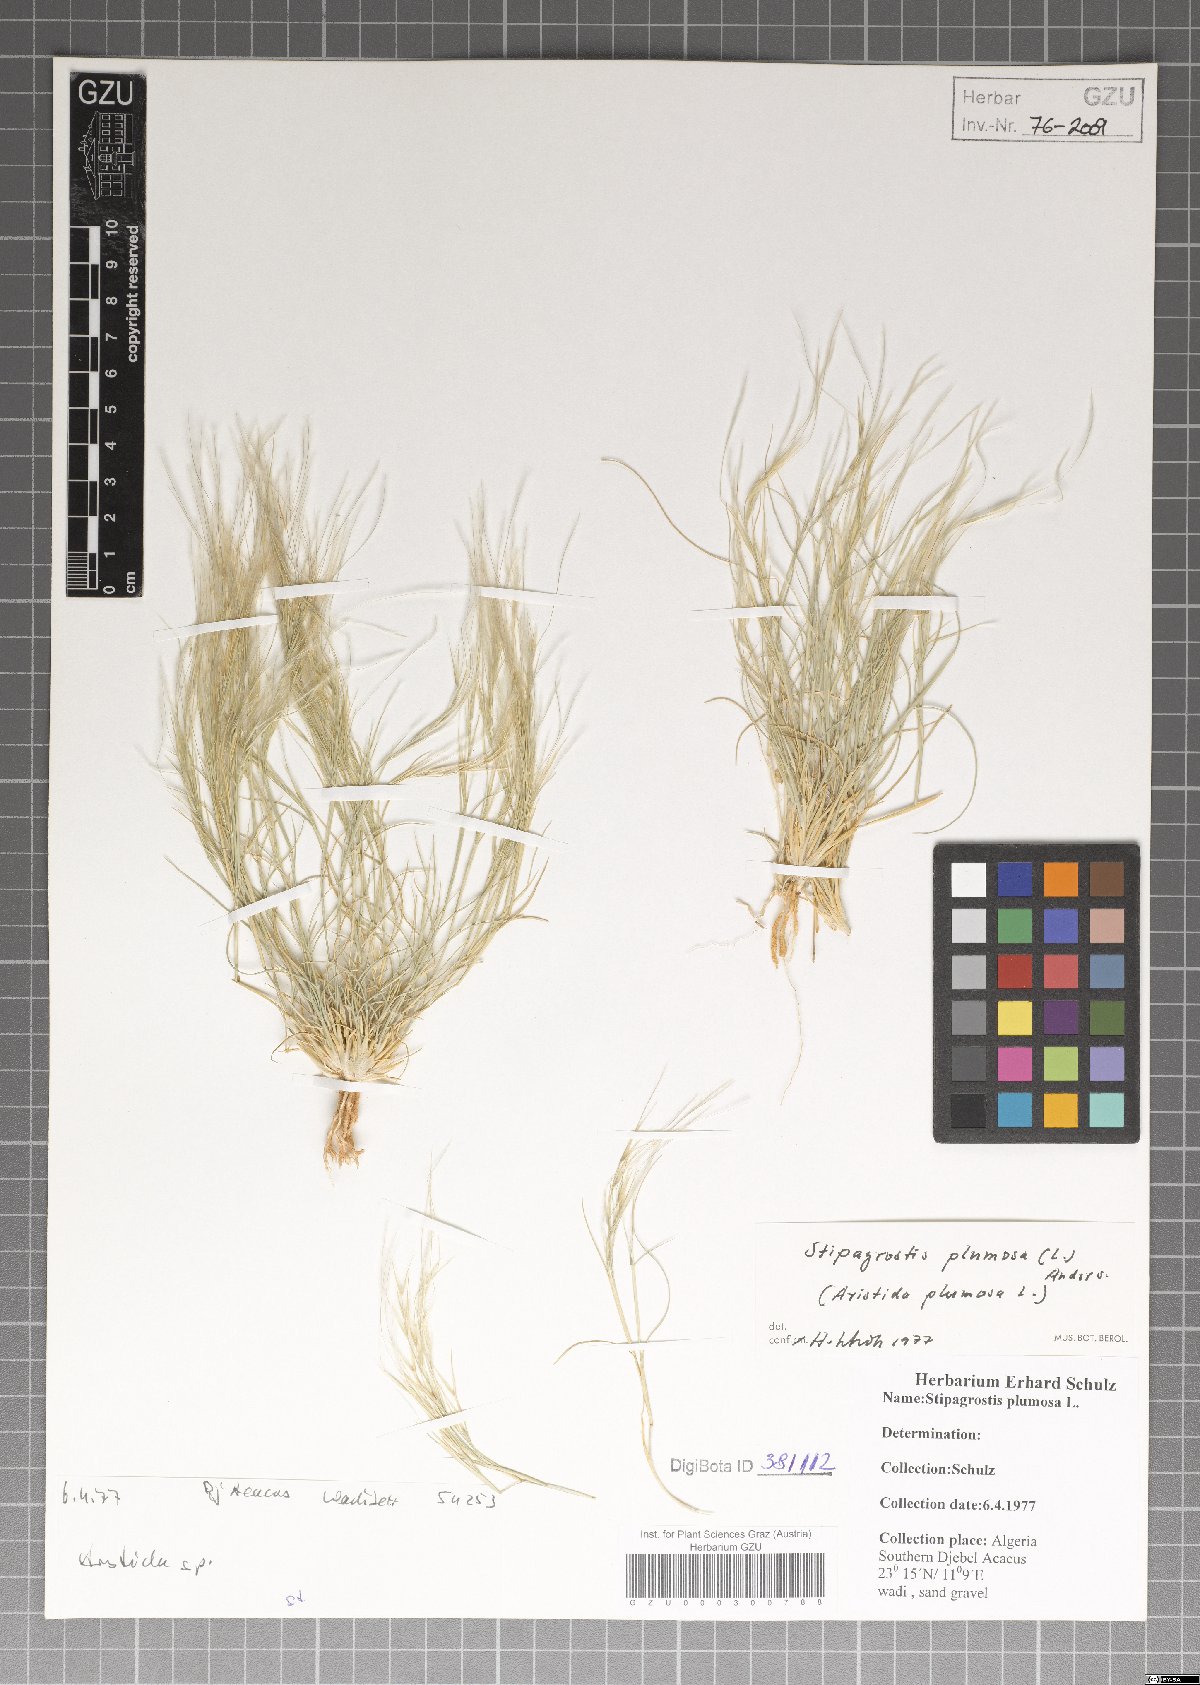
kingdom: Plantae
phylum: Tracheophyta
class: Liliopsida
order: Poales
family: Poaceae
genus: Stipagrostis
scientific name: Stipagrostis plumosa
